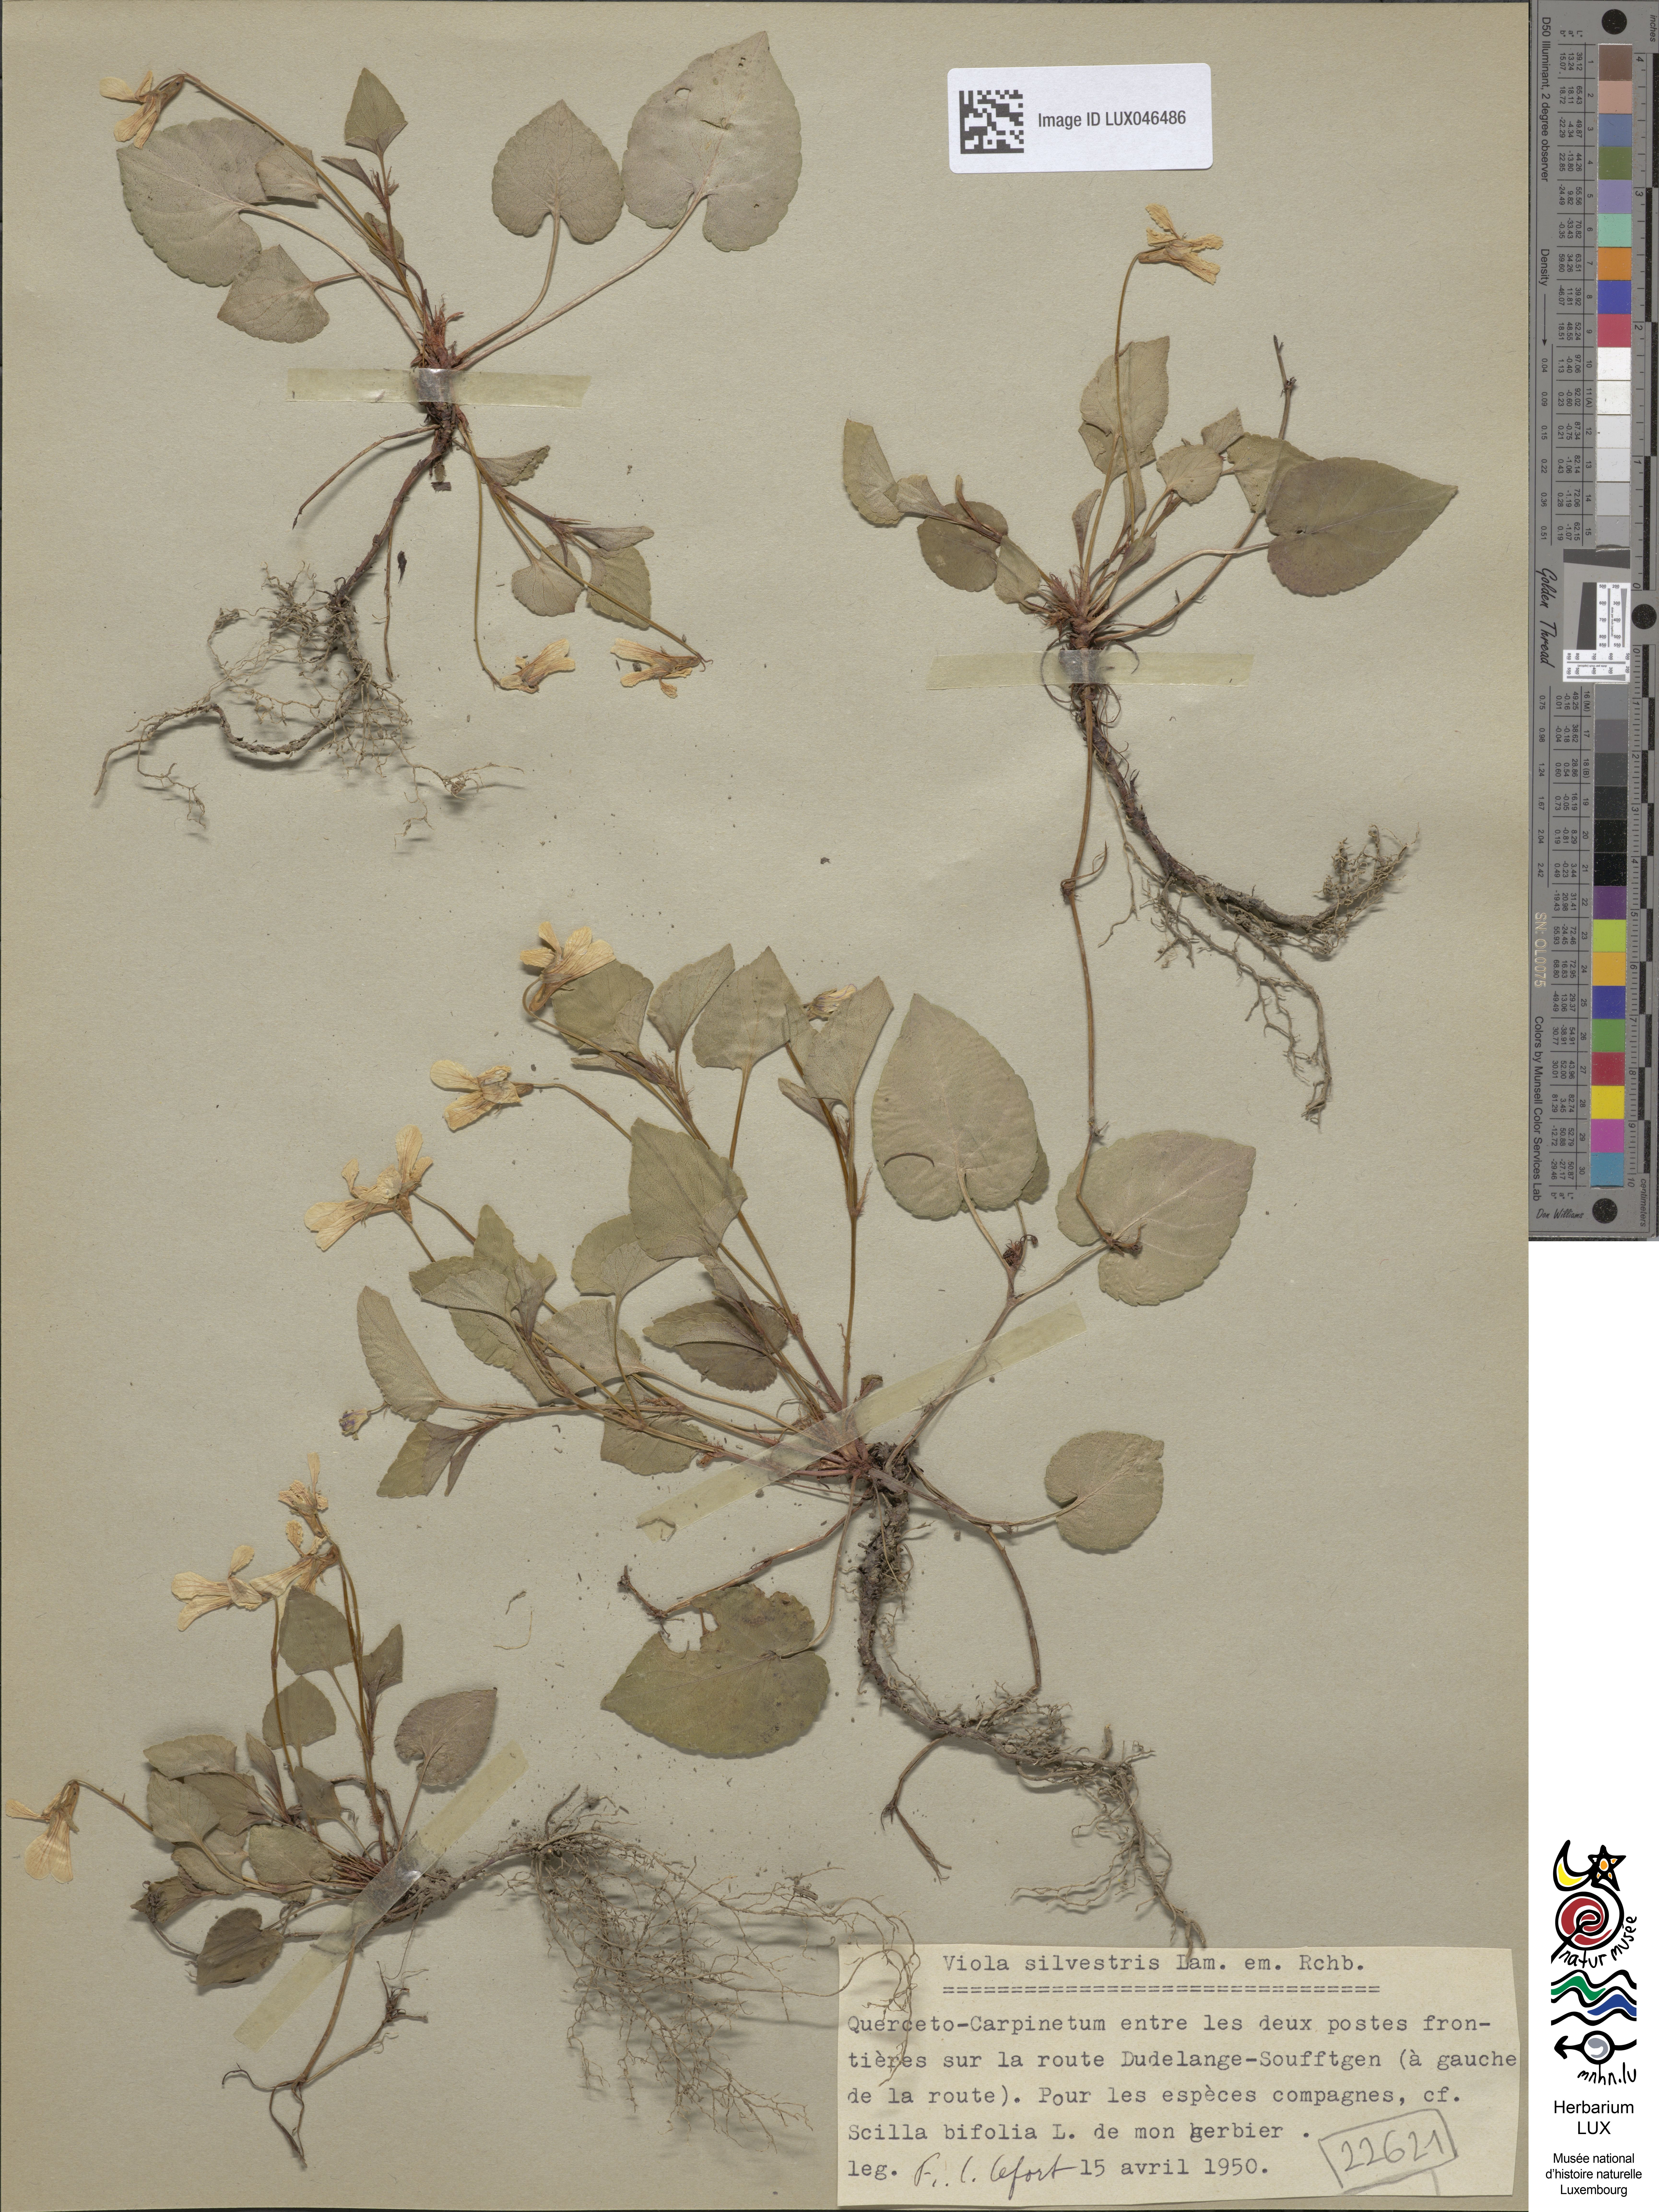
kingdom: Plantae
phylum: Tracheophyta
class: Magnoliopsida
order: Malpighiales
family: Violaceae
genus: Viola
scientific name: Viola reichenbachiana
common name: Early dog-violet
